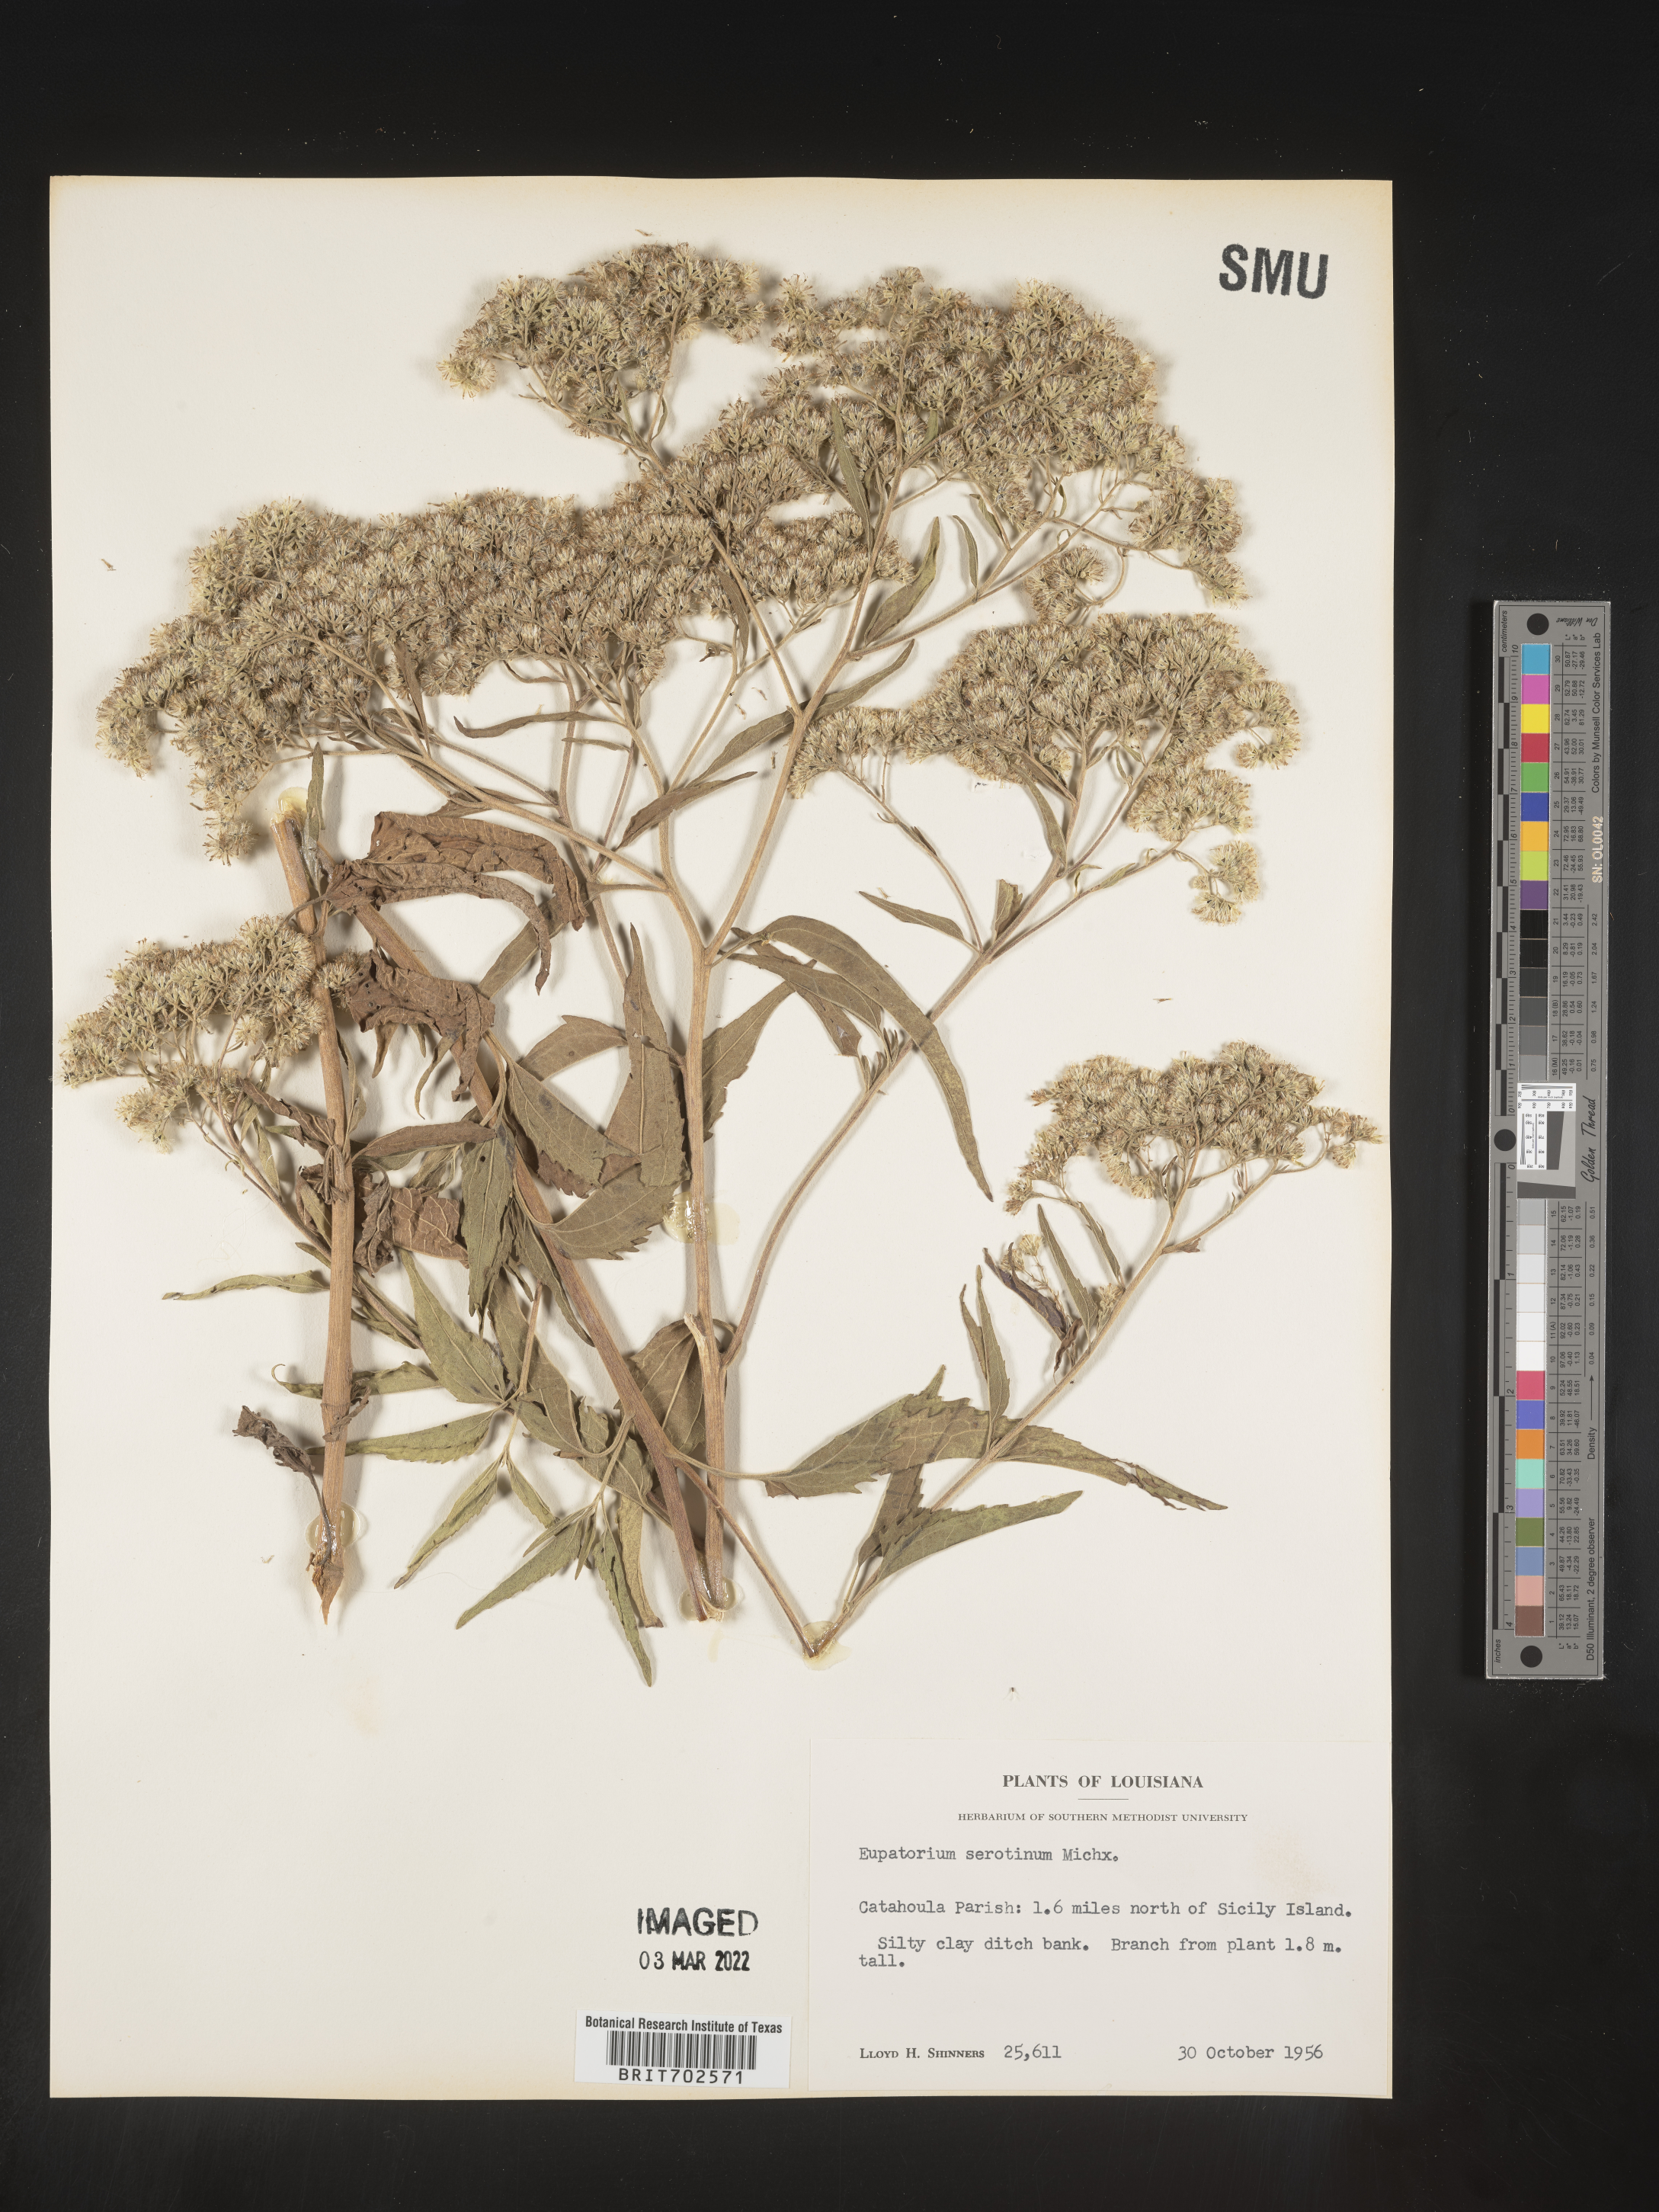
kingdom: Plantae
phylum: Tracheophyta
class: Magnoliopsida
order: Asterales
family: Asteraceae
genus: Eupatorium
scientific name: Eupatorium serotinum
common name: Late boneset
